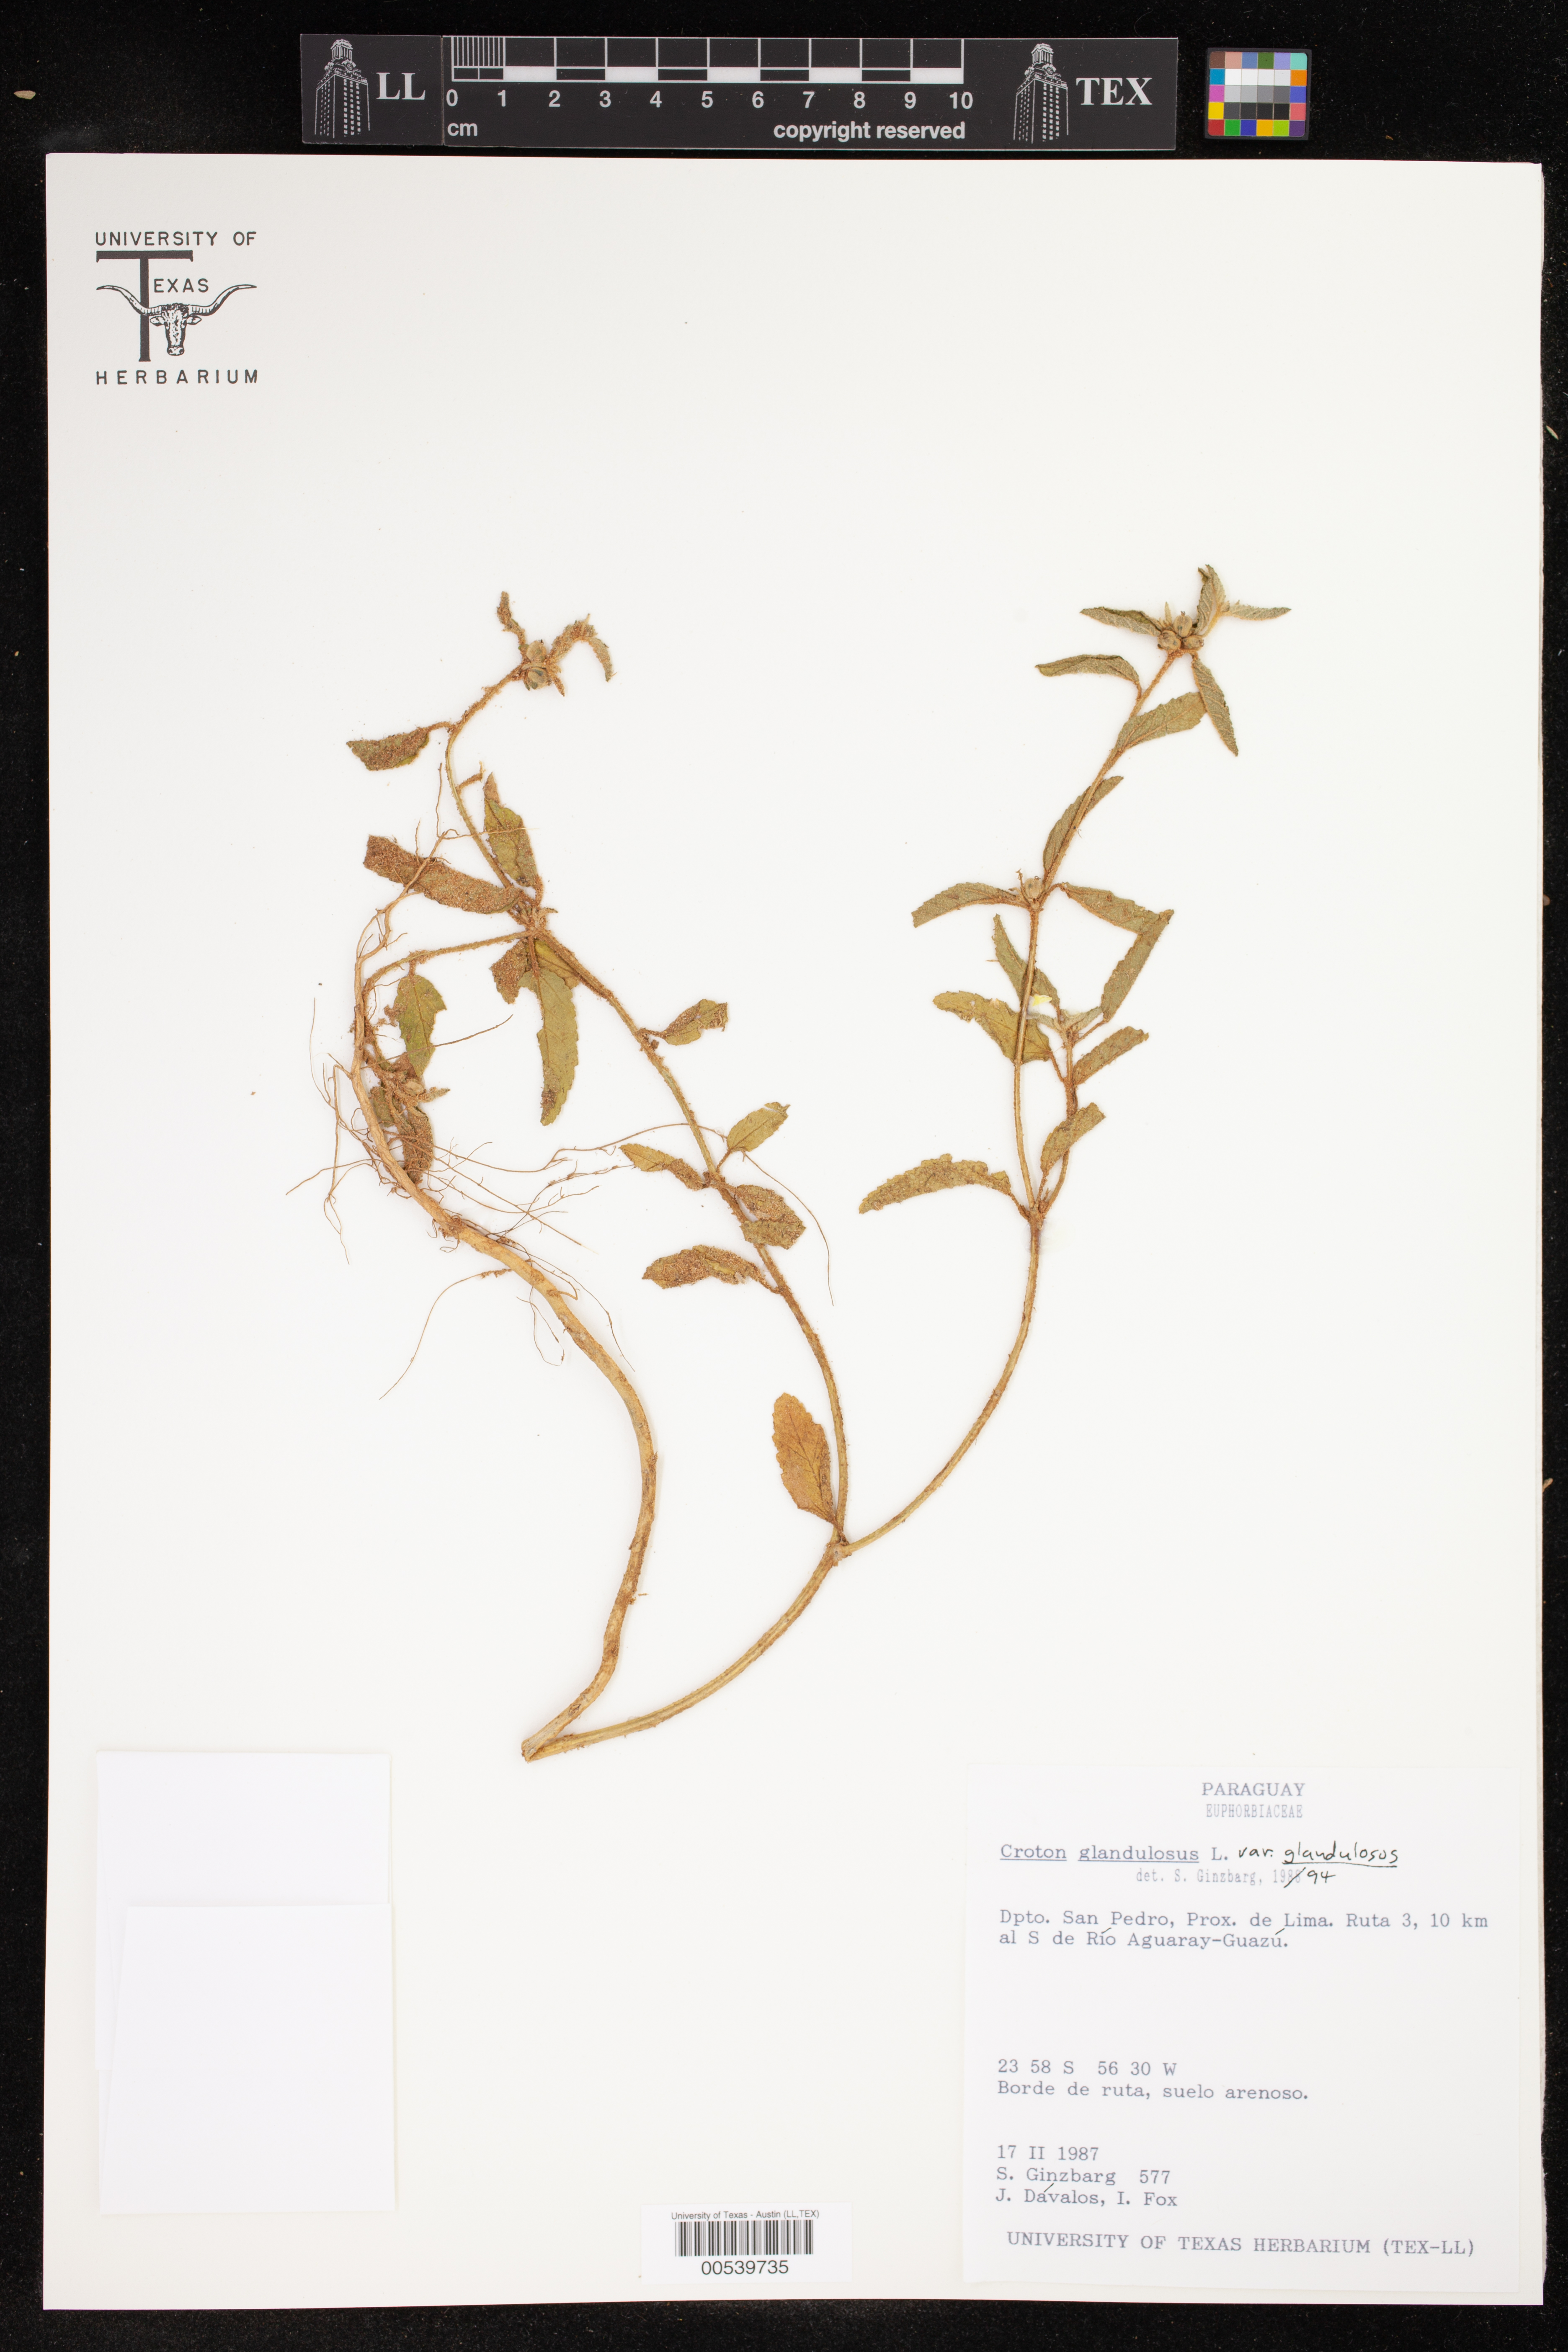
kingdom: Plantae
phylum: Tracheophyta
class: Magnoliopsida
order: Malpighiales
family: Euphorbiaceae
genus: Croton
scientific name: Croton glandulosus
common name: Tropic croton
